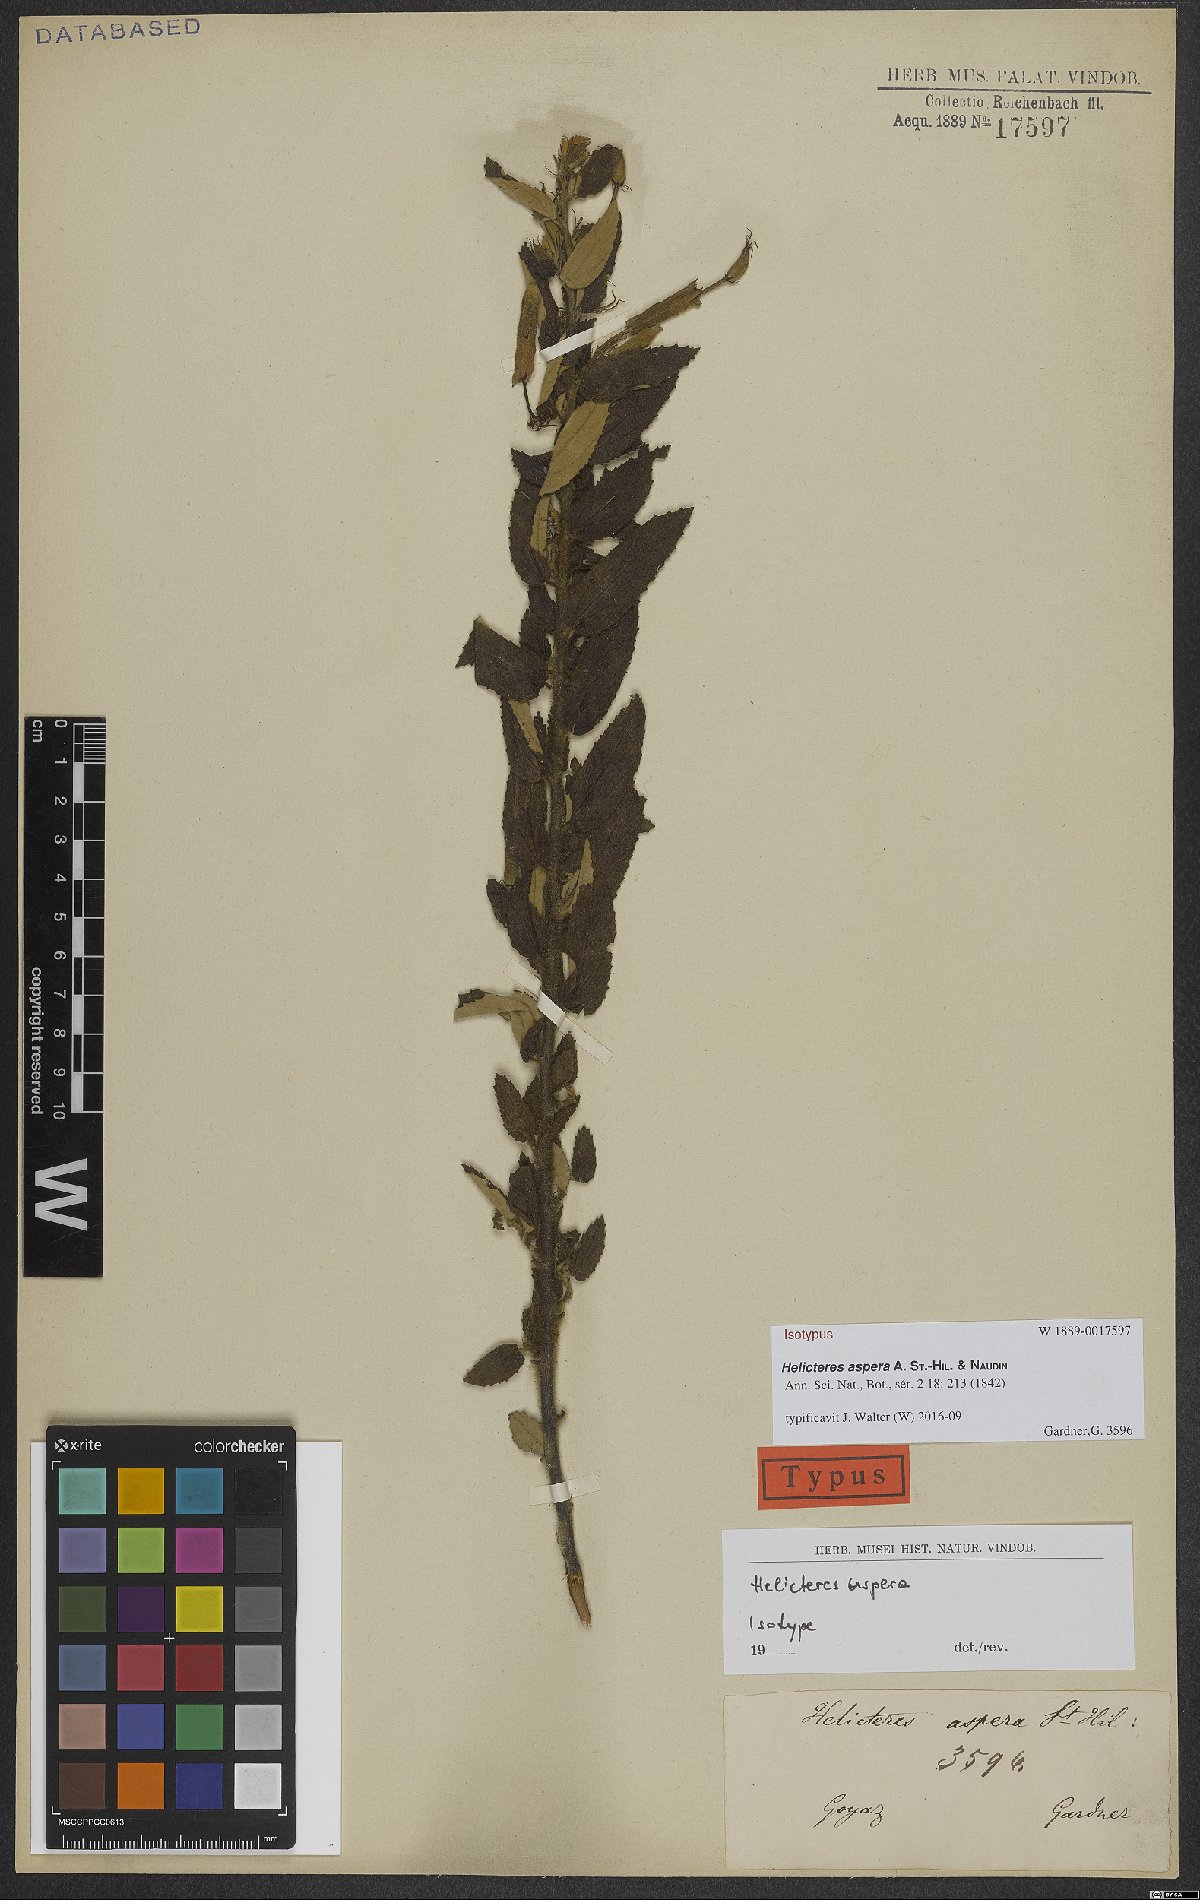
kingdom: Plantae
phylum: Tracheophyta
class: Magnoliopsida
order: Malvales
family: Malvaceae
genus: Helicteres
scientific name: Helicteres aspera
